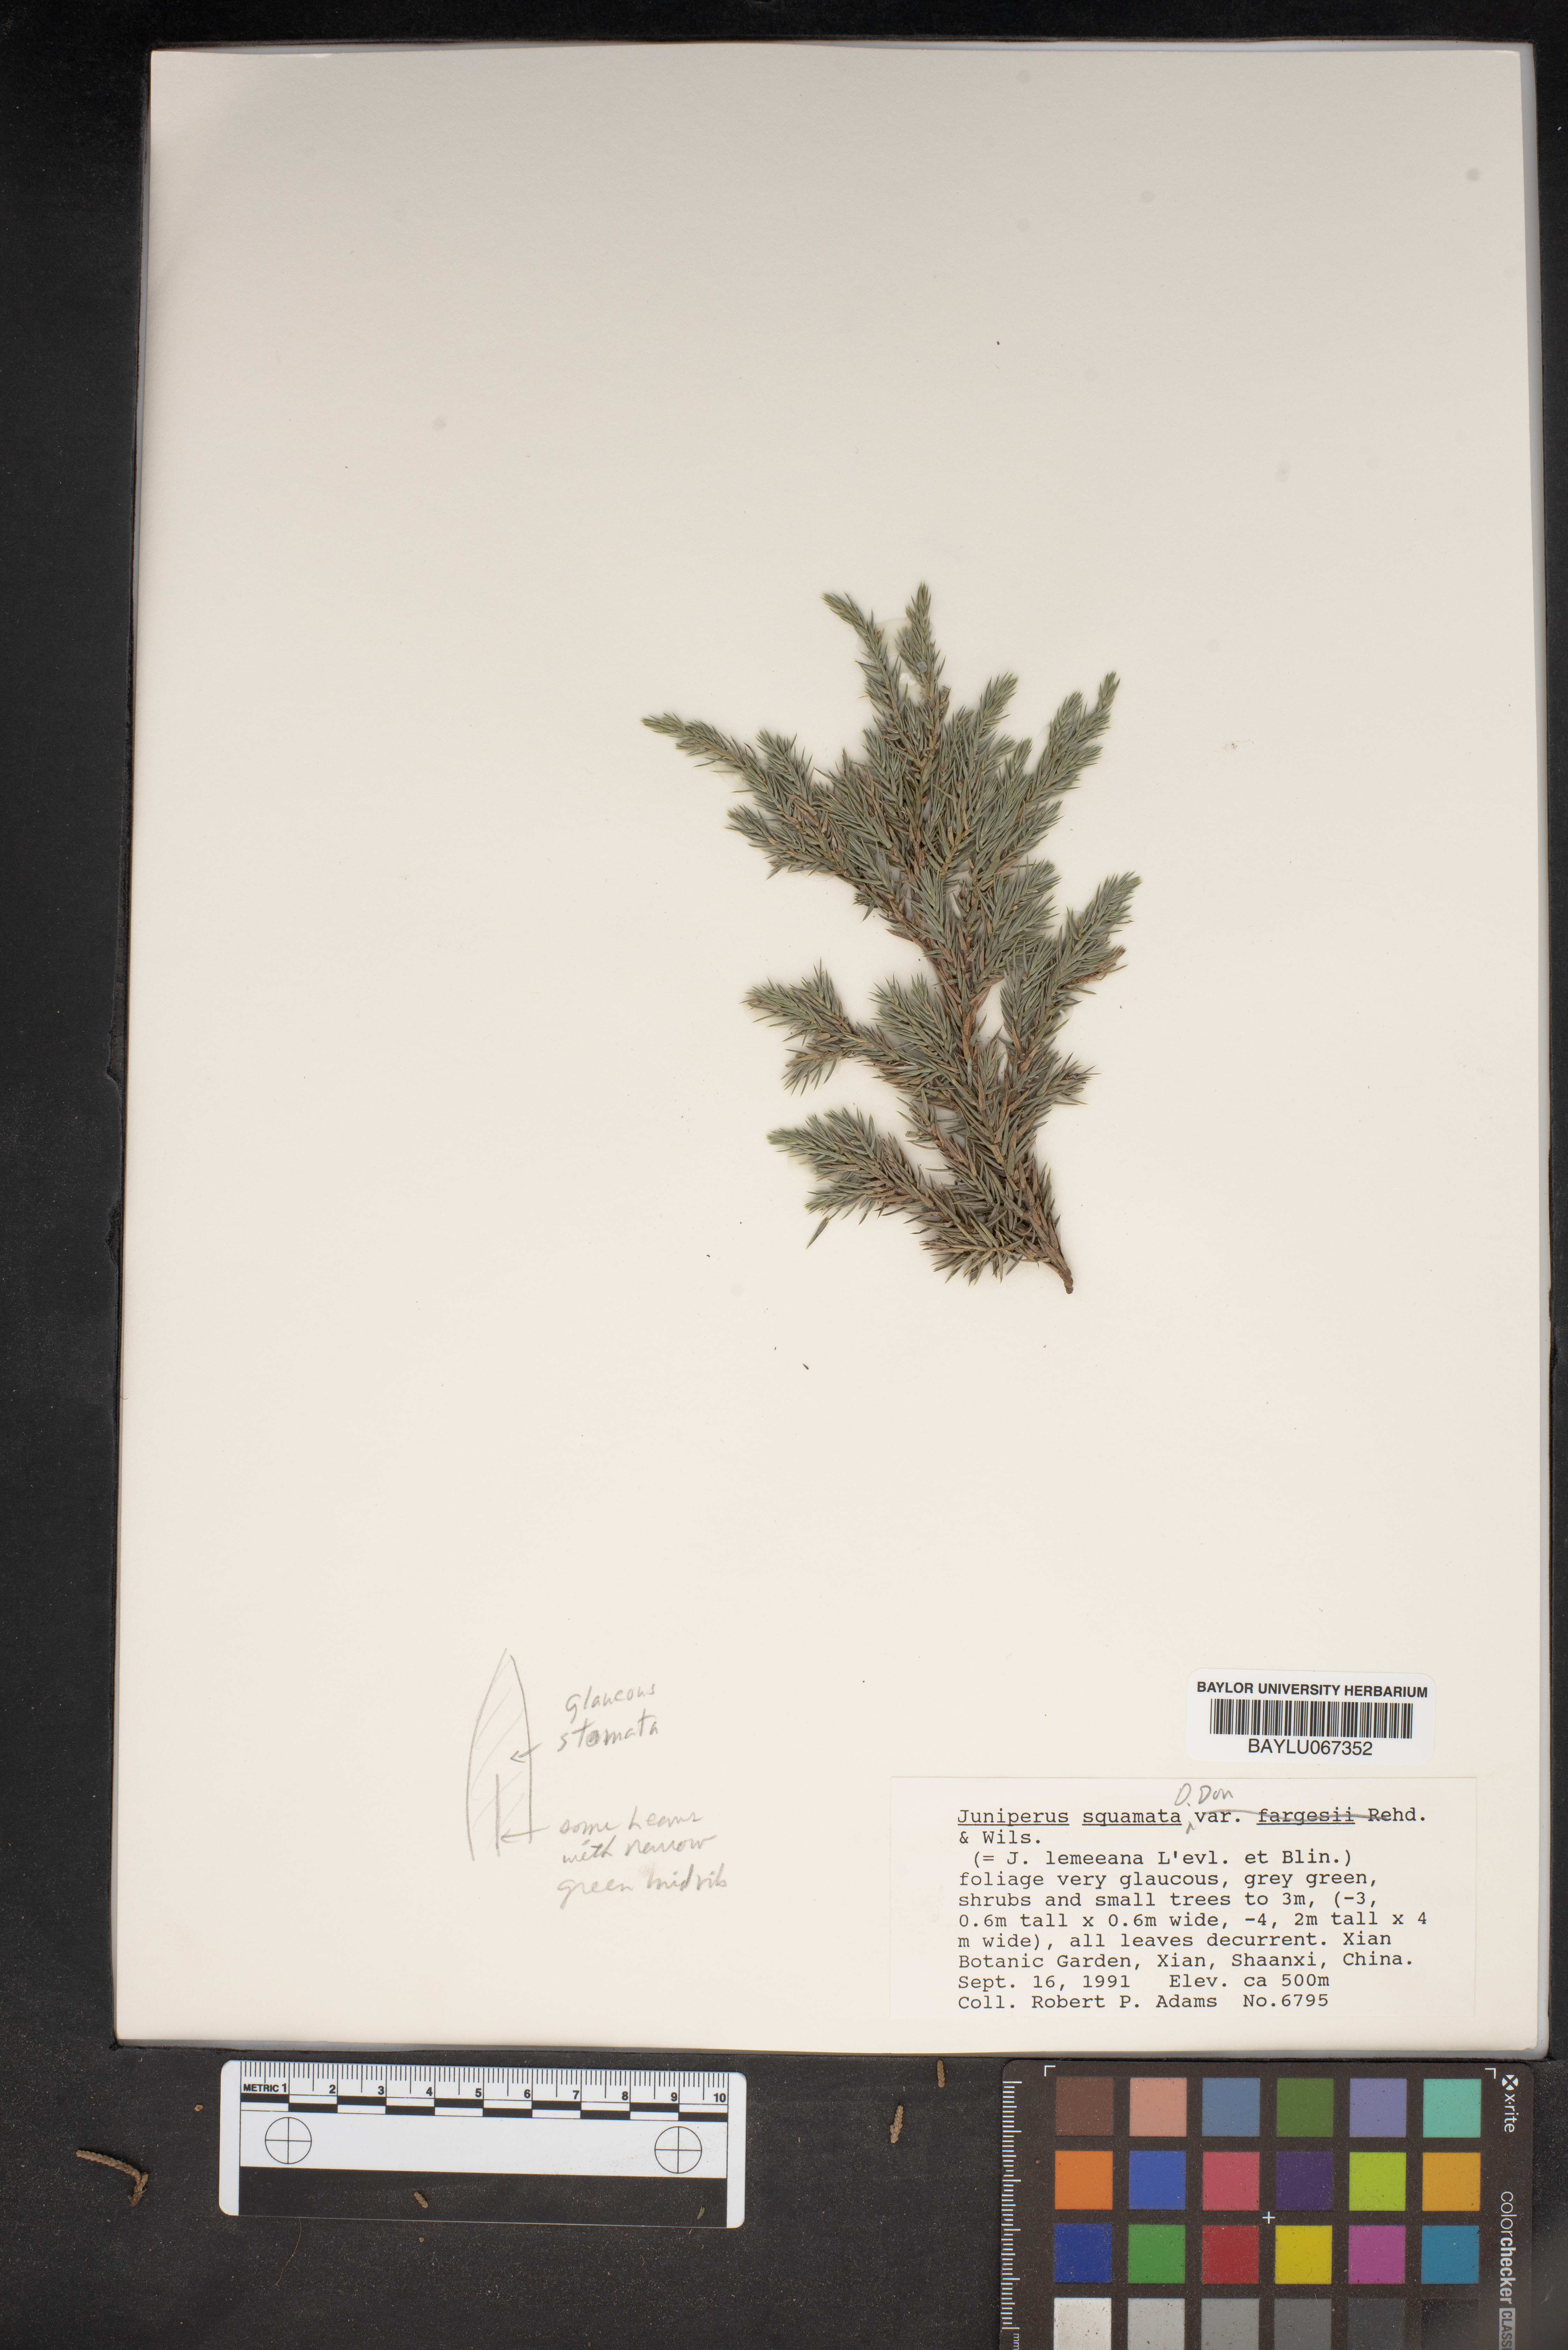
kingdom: Plantae
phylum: Tracheophyta
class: Pinopsida
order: Pinales
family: Cupressaceae
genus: Juniperus
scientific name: Juniperus squamata
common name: Flaky juniper
